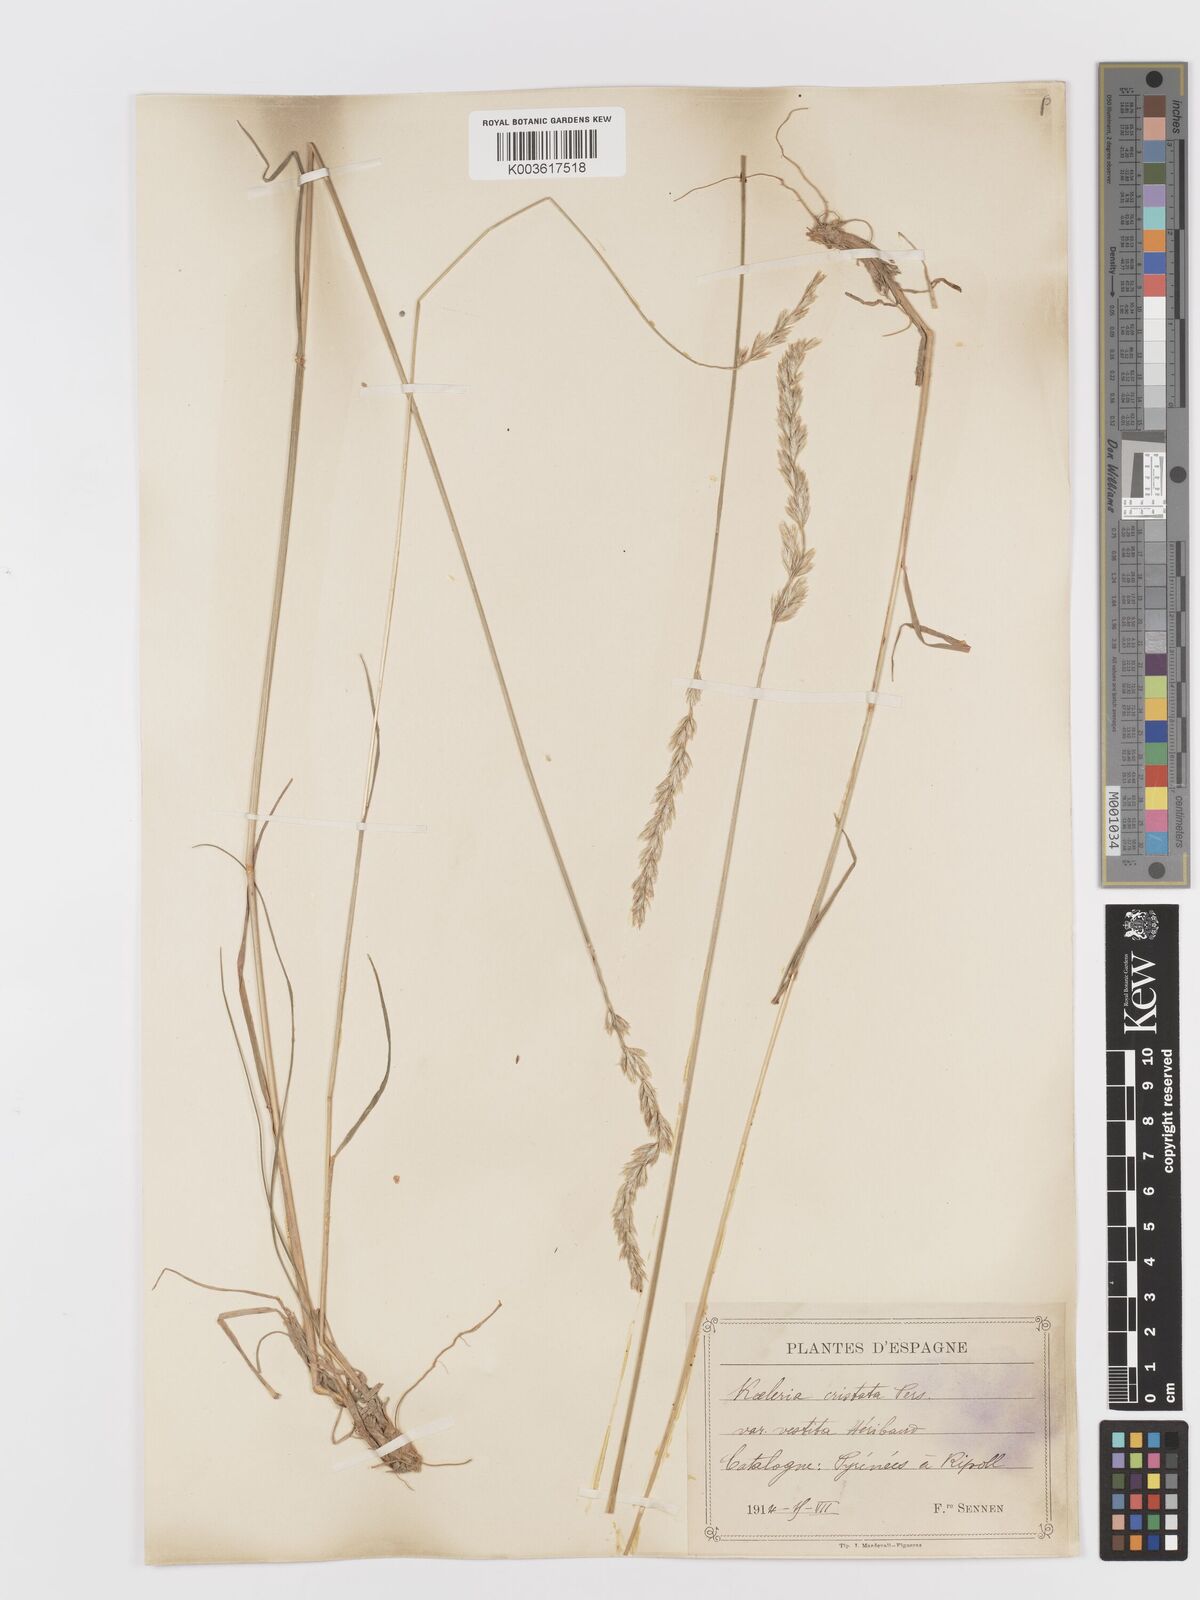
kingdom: Plantae
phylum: Tracheophyta
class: Liliopsida
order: Poales
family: Poaceae
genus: Koeleria
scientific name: Koeleria
